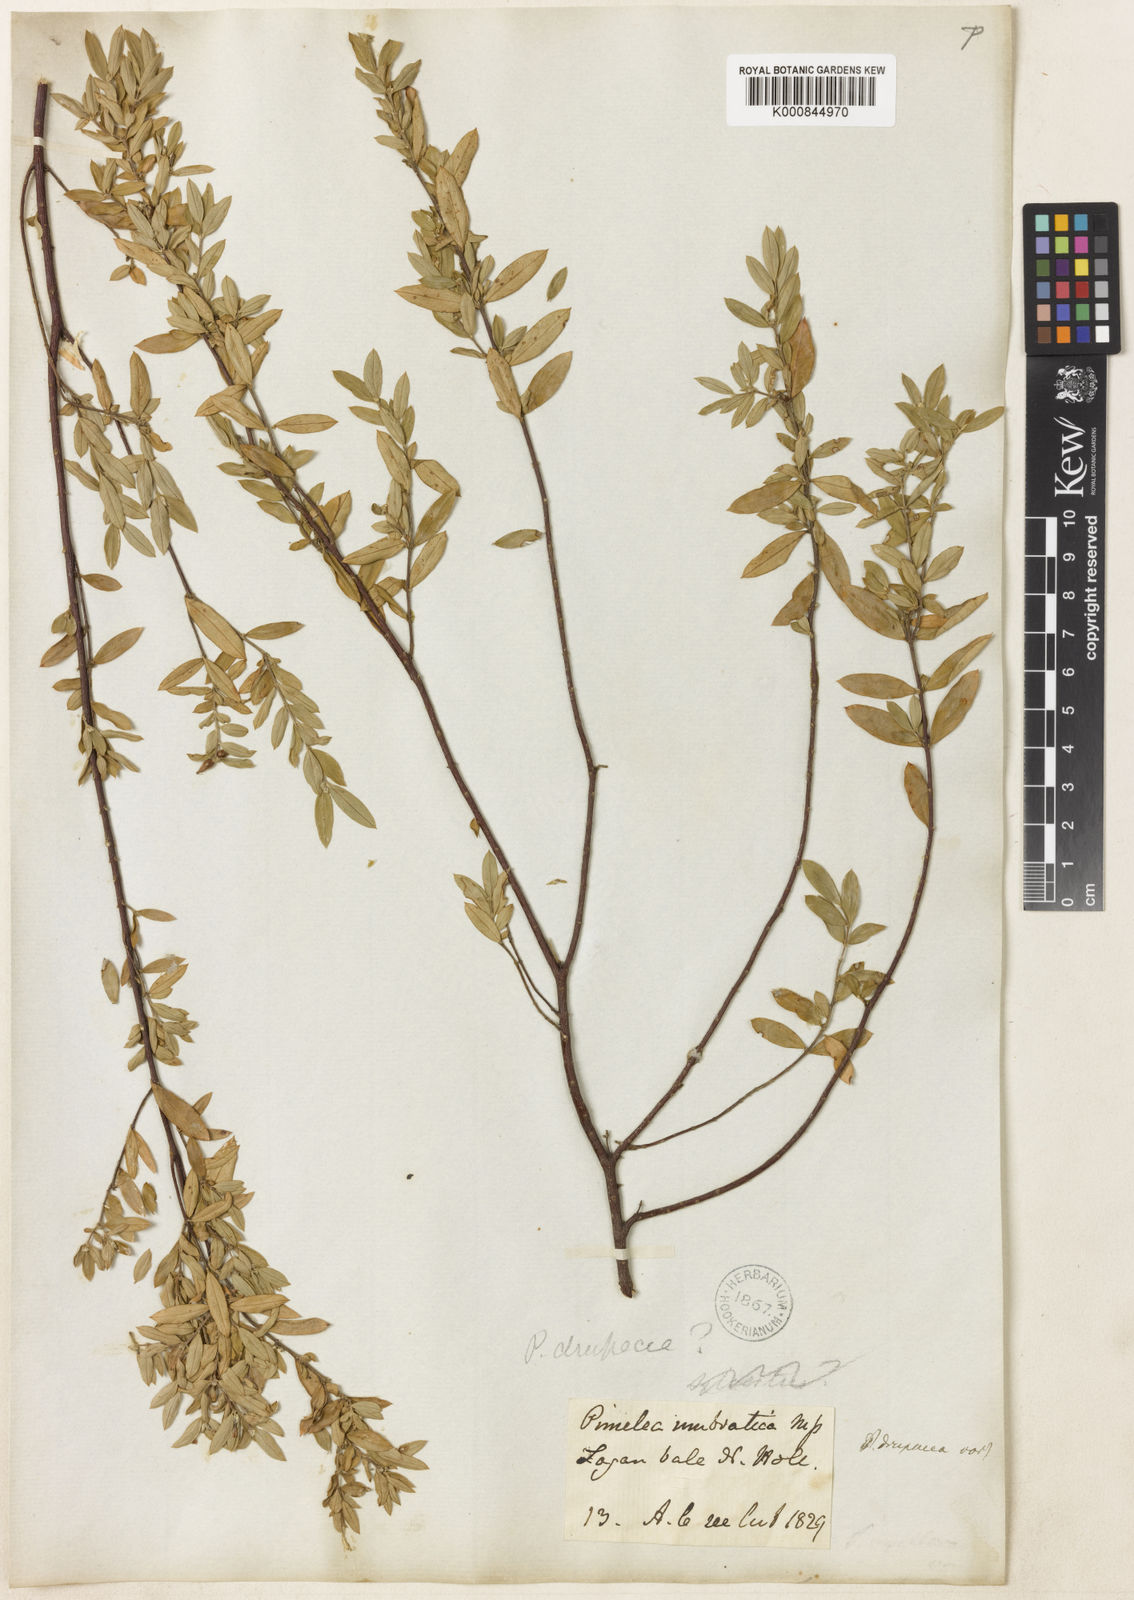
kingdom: Plantae
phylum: Tracheophyta
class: Magnoliopsida
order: Malvales
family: Thymelaeaceae
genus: Pimelea
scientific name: Pimelea drupacea
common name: Cherry riceflower
